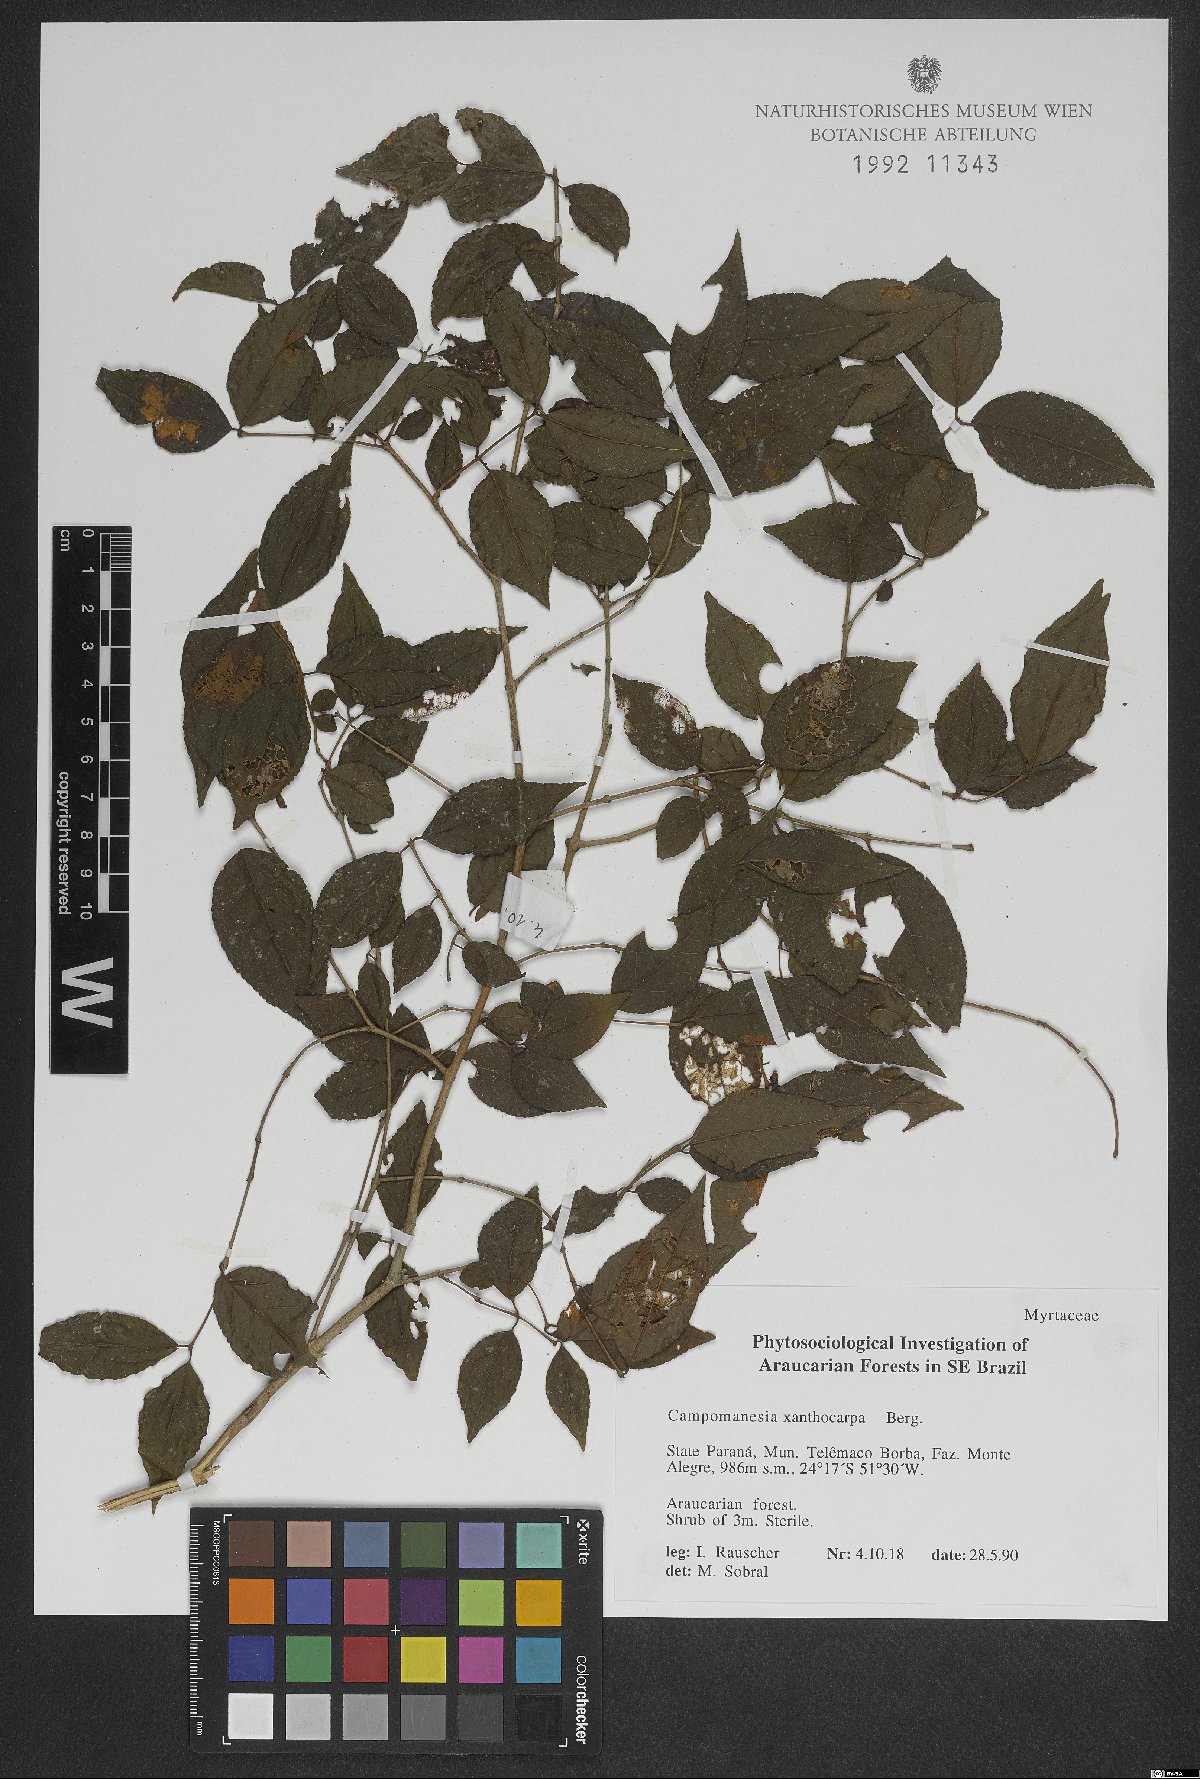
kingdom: Plantae
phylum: Tracheophyta
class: Magnoliopsida
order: Myrtales
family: Myrtaceae
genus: Campomanesia
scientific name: Campomanesia xanthocarpa
